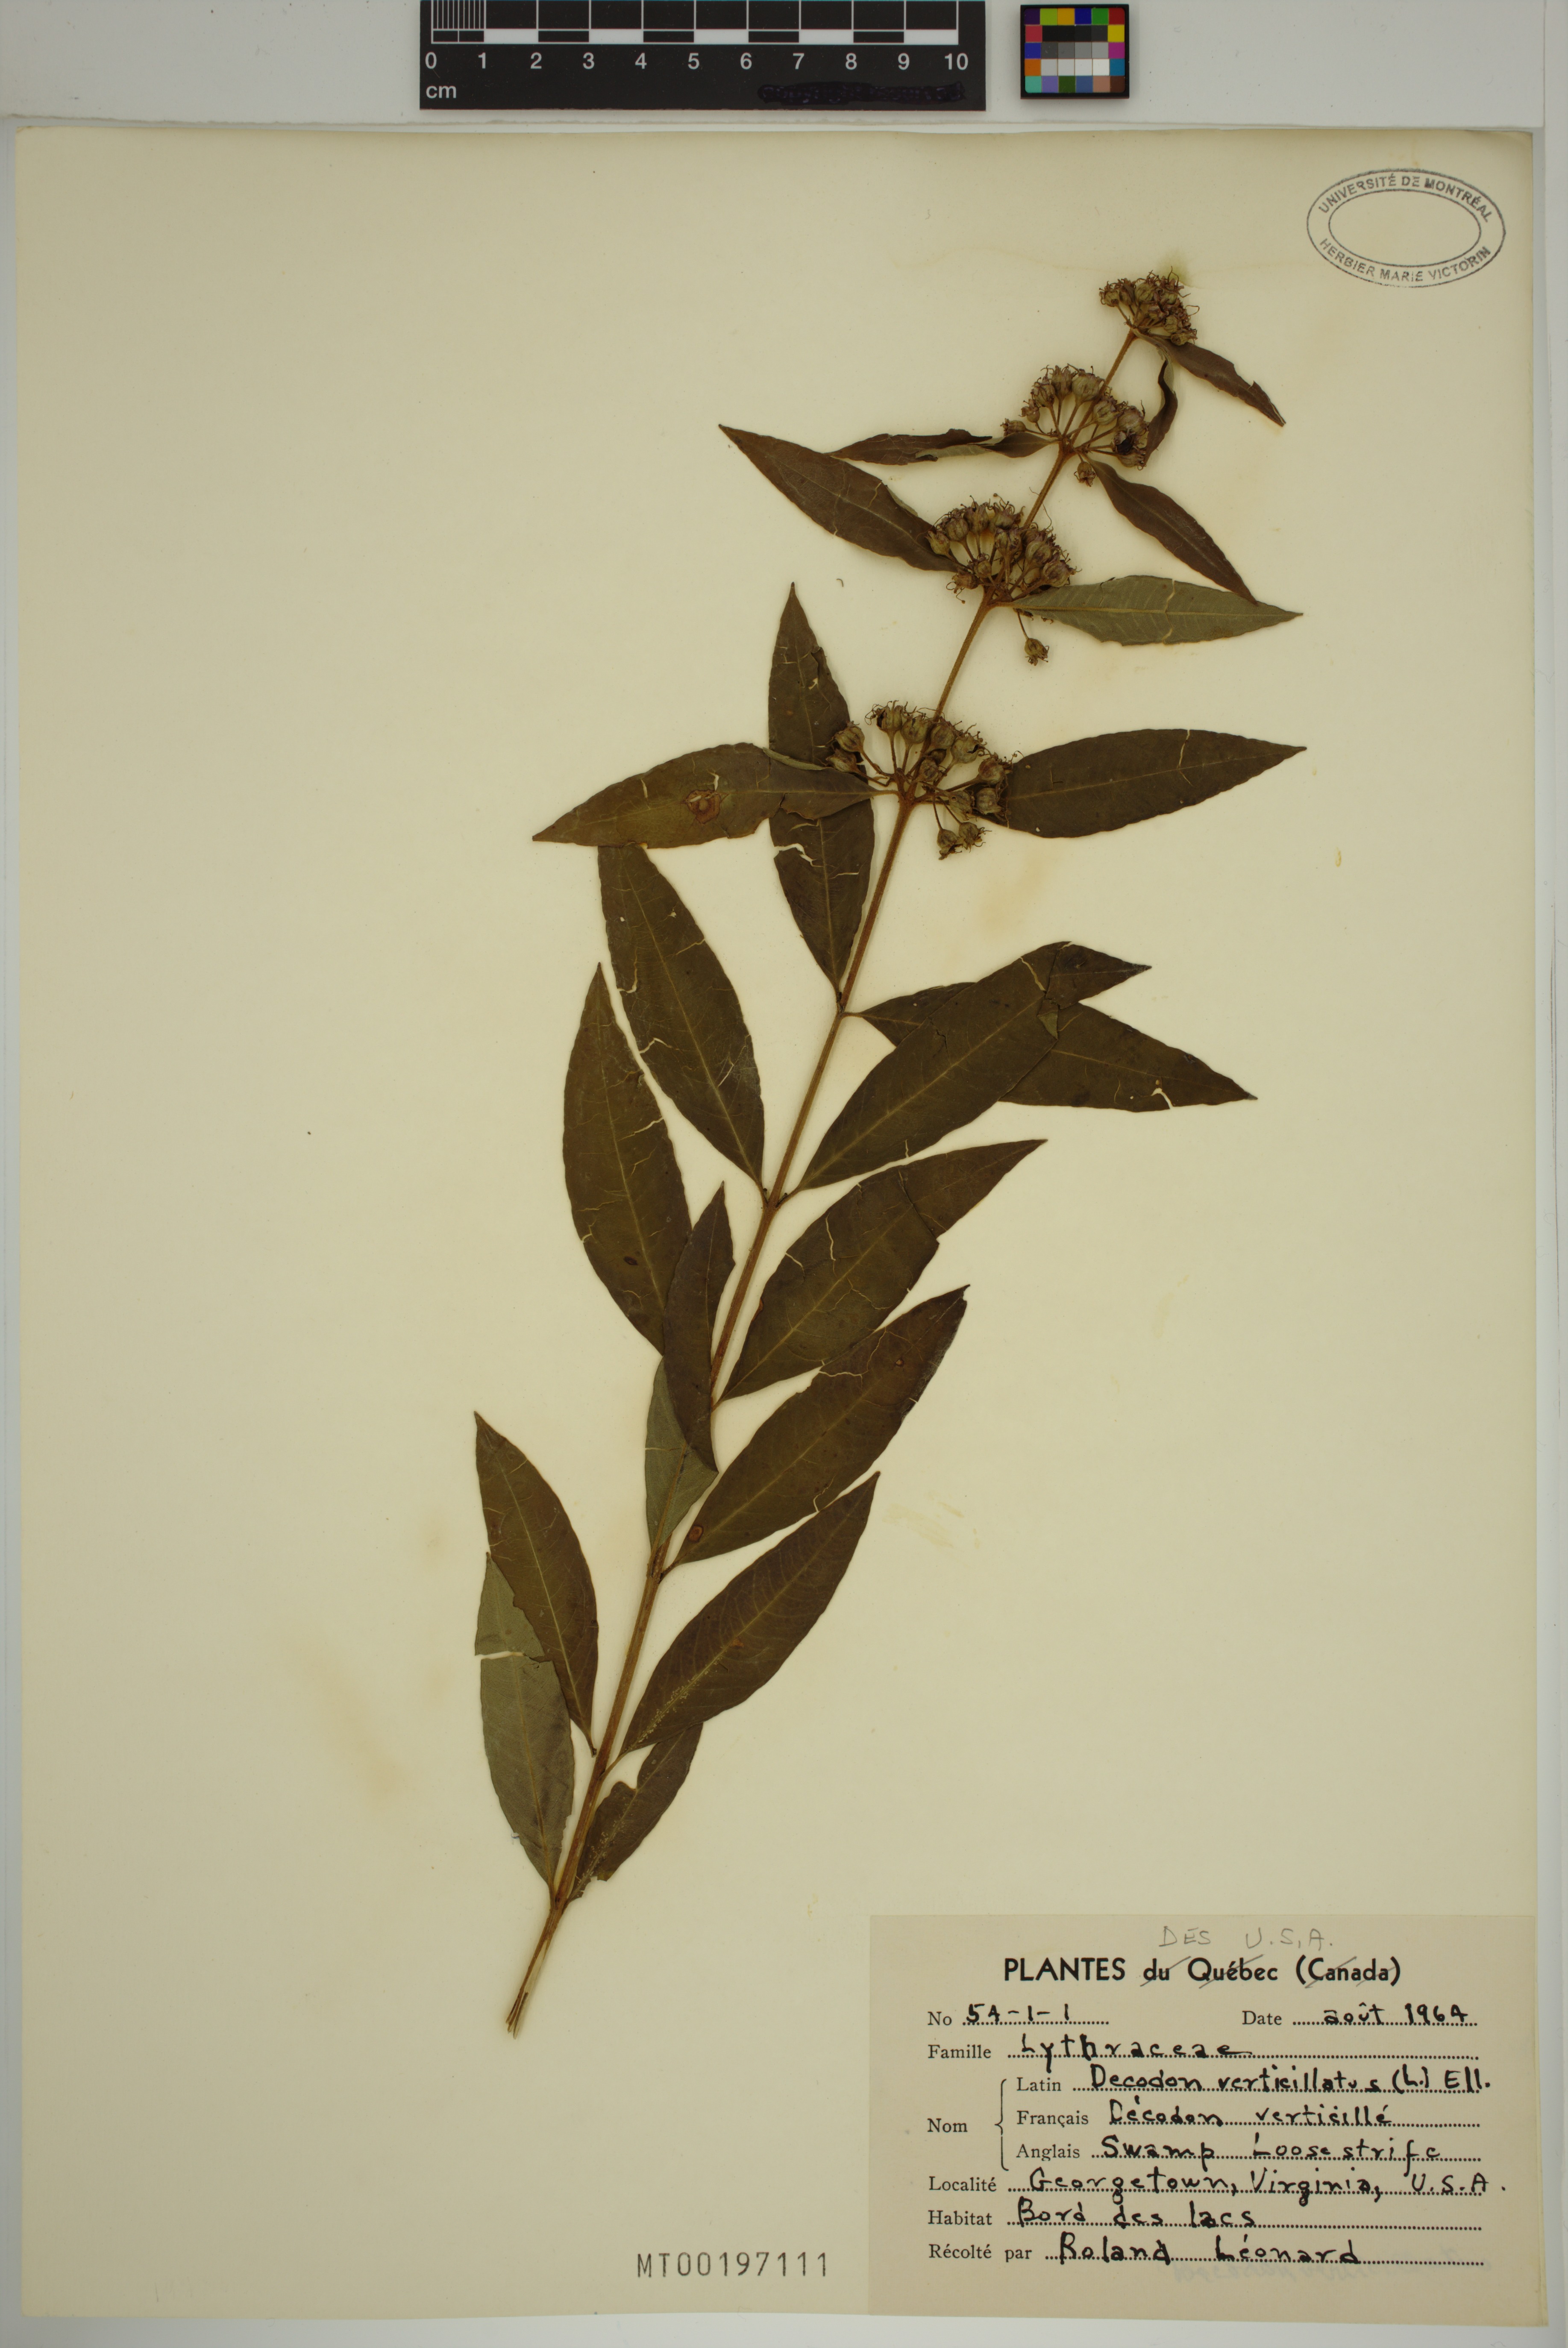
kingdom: Plantae
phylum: Tracheophyta
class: Magnoliopsida
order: Myrtales
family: Lythraceae
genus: Decodon
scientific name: Decodon verticillatus
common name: Hairy swamp loosestrife
